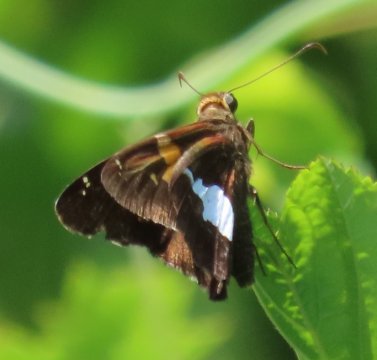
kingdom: Animalia
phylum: Arthropoda
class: Insecta
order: Lepidoptera
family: Hesperiidae
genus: Epargyreus
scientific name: Epargyreus clarus
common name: Silver-spotted Skipper
